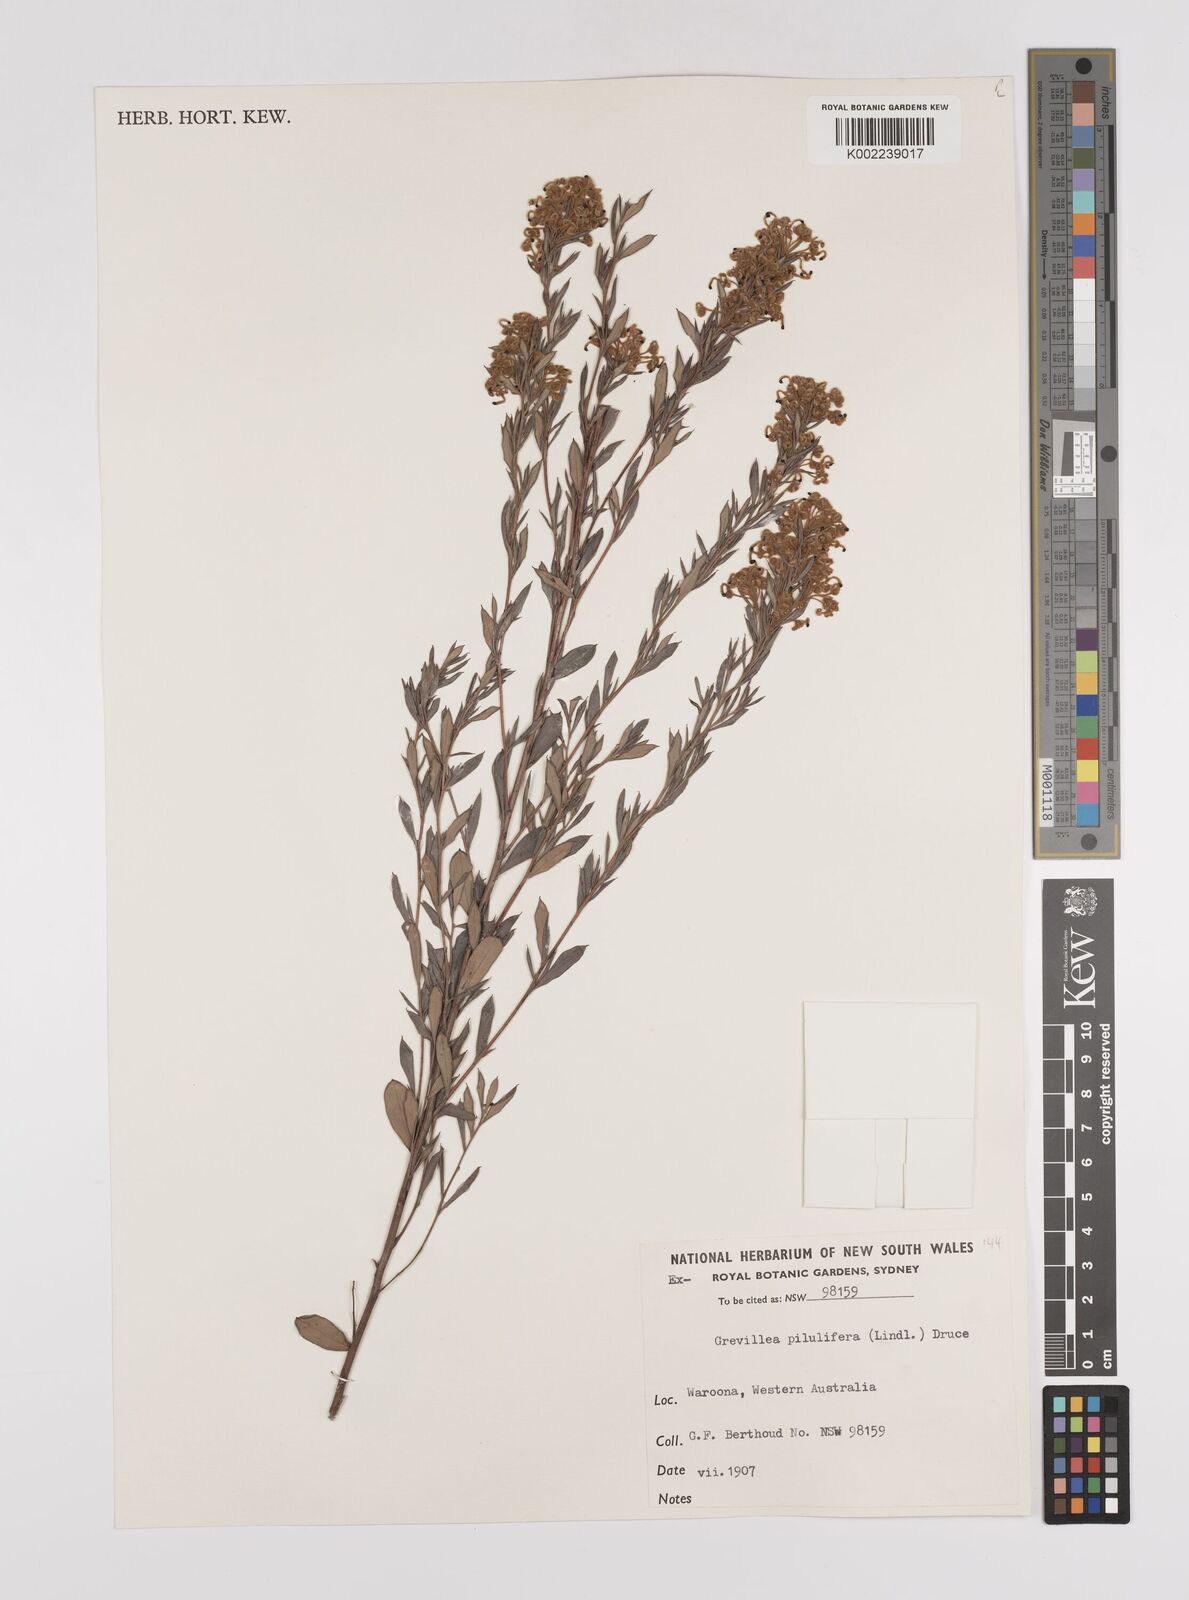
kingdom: Plantae
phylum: Tracheophyta
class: Magnoliopsida
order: Proteales
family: Proteaceae
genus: Grevillea
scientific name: Grevillea pilulifera
